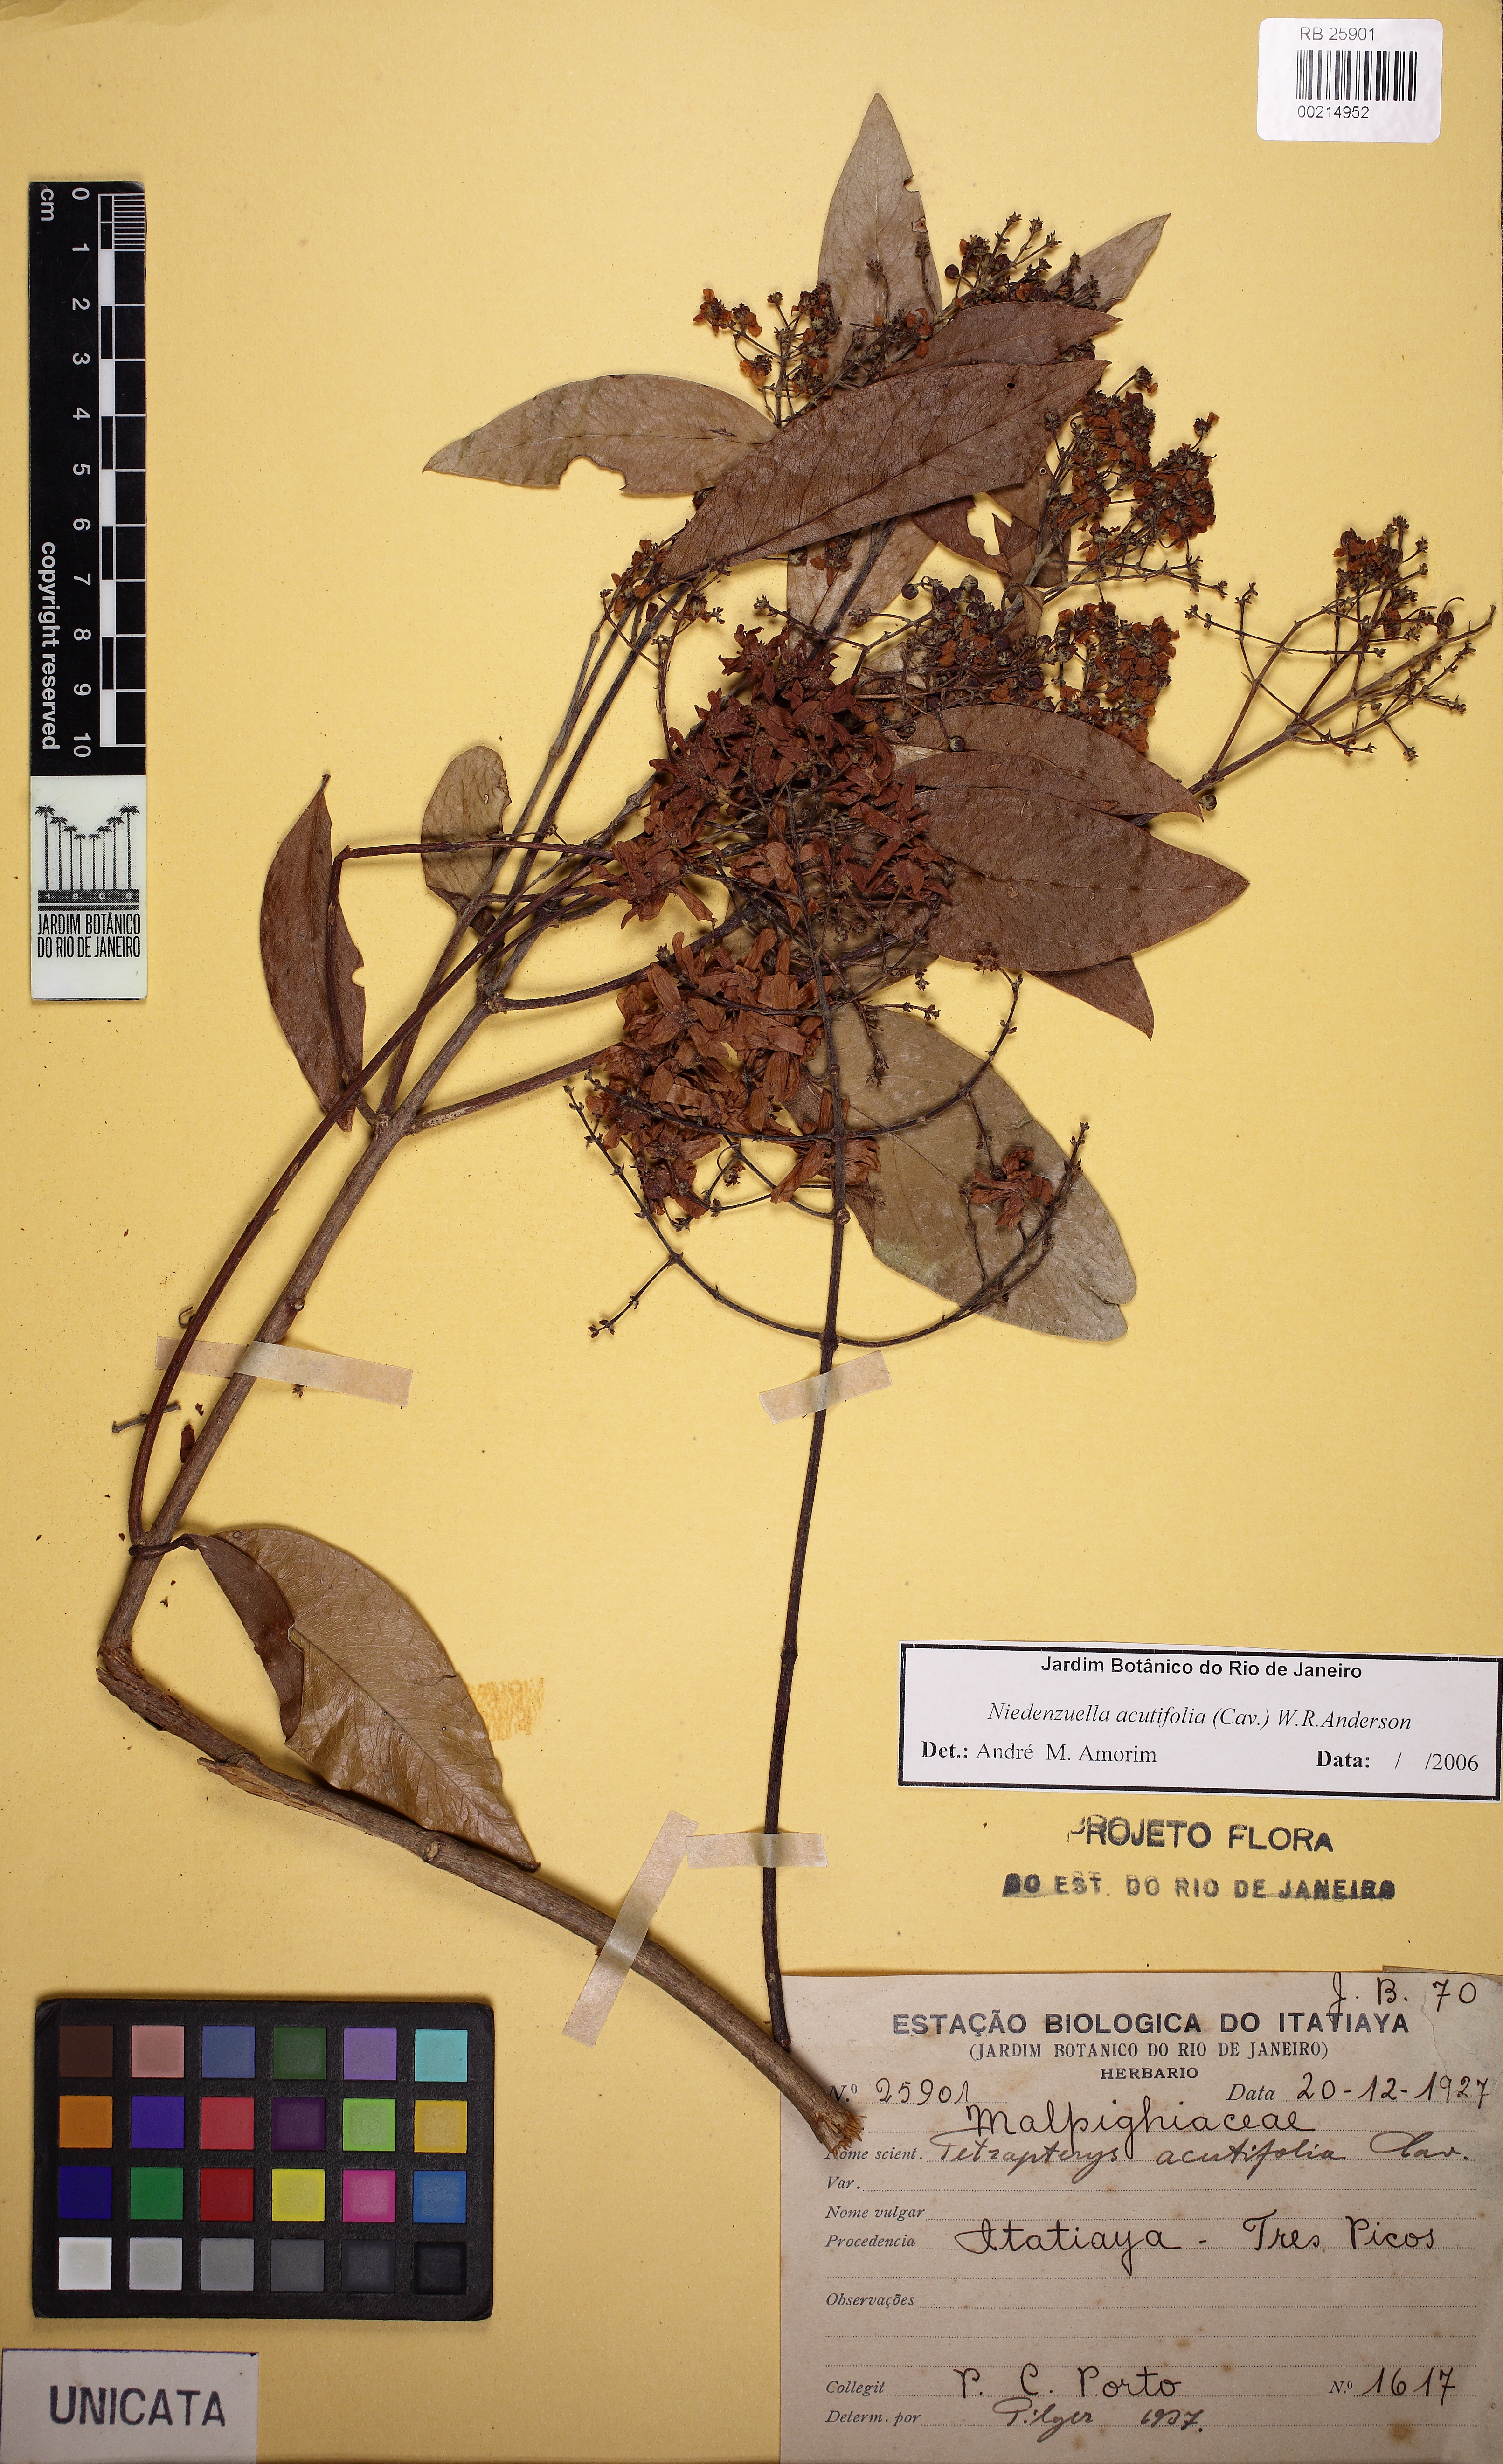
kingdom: Plantae
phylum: Tracheophyta
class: Magnoliopsida
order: Malpighiales
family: Malpighiaceae
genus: Niedenzuella
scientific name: Niedenzuella acutifolia
